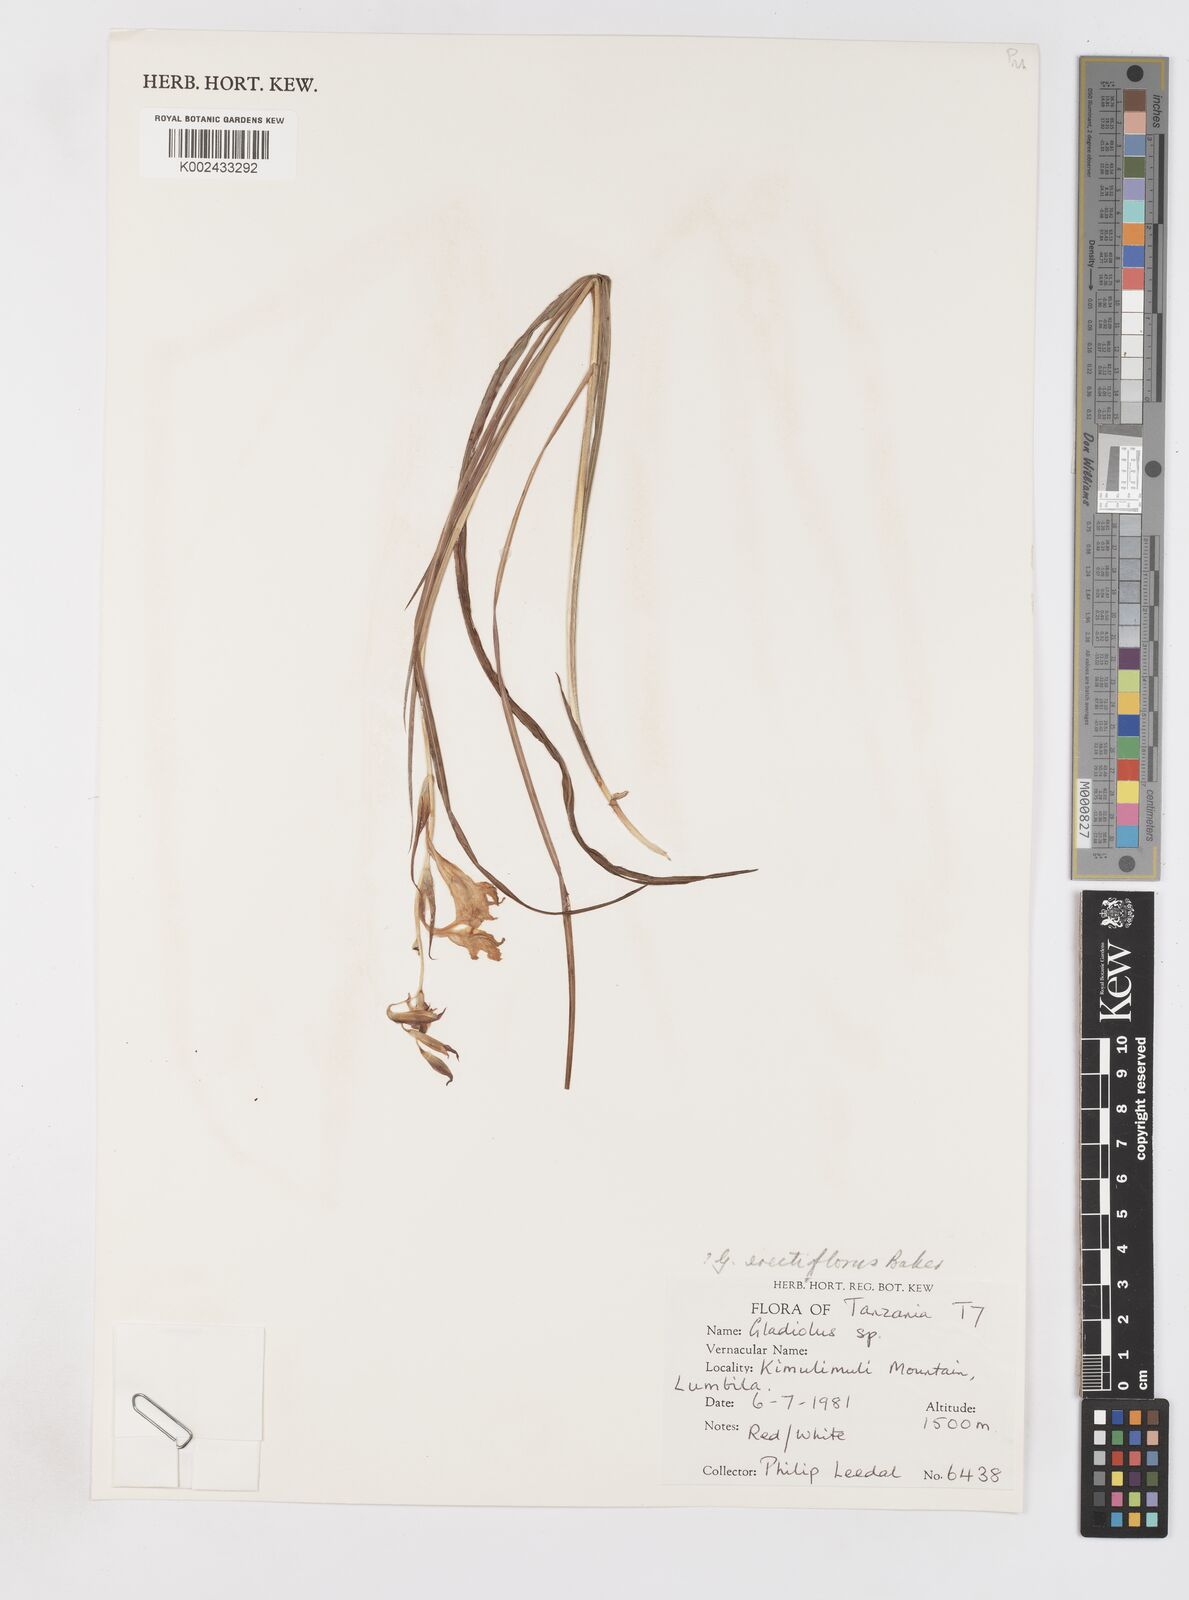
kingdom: Plantae
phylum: Tracheophyta
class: Liliopsida
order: Asparagales
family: Iridaceae
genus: Gladiolus
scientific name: Gladiolus erectiflorus
